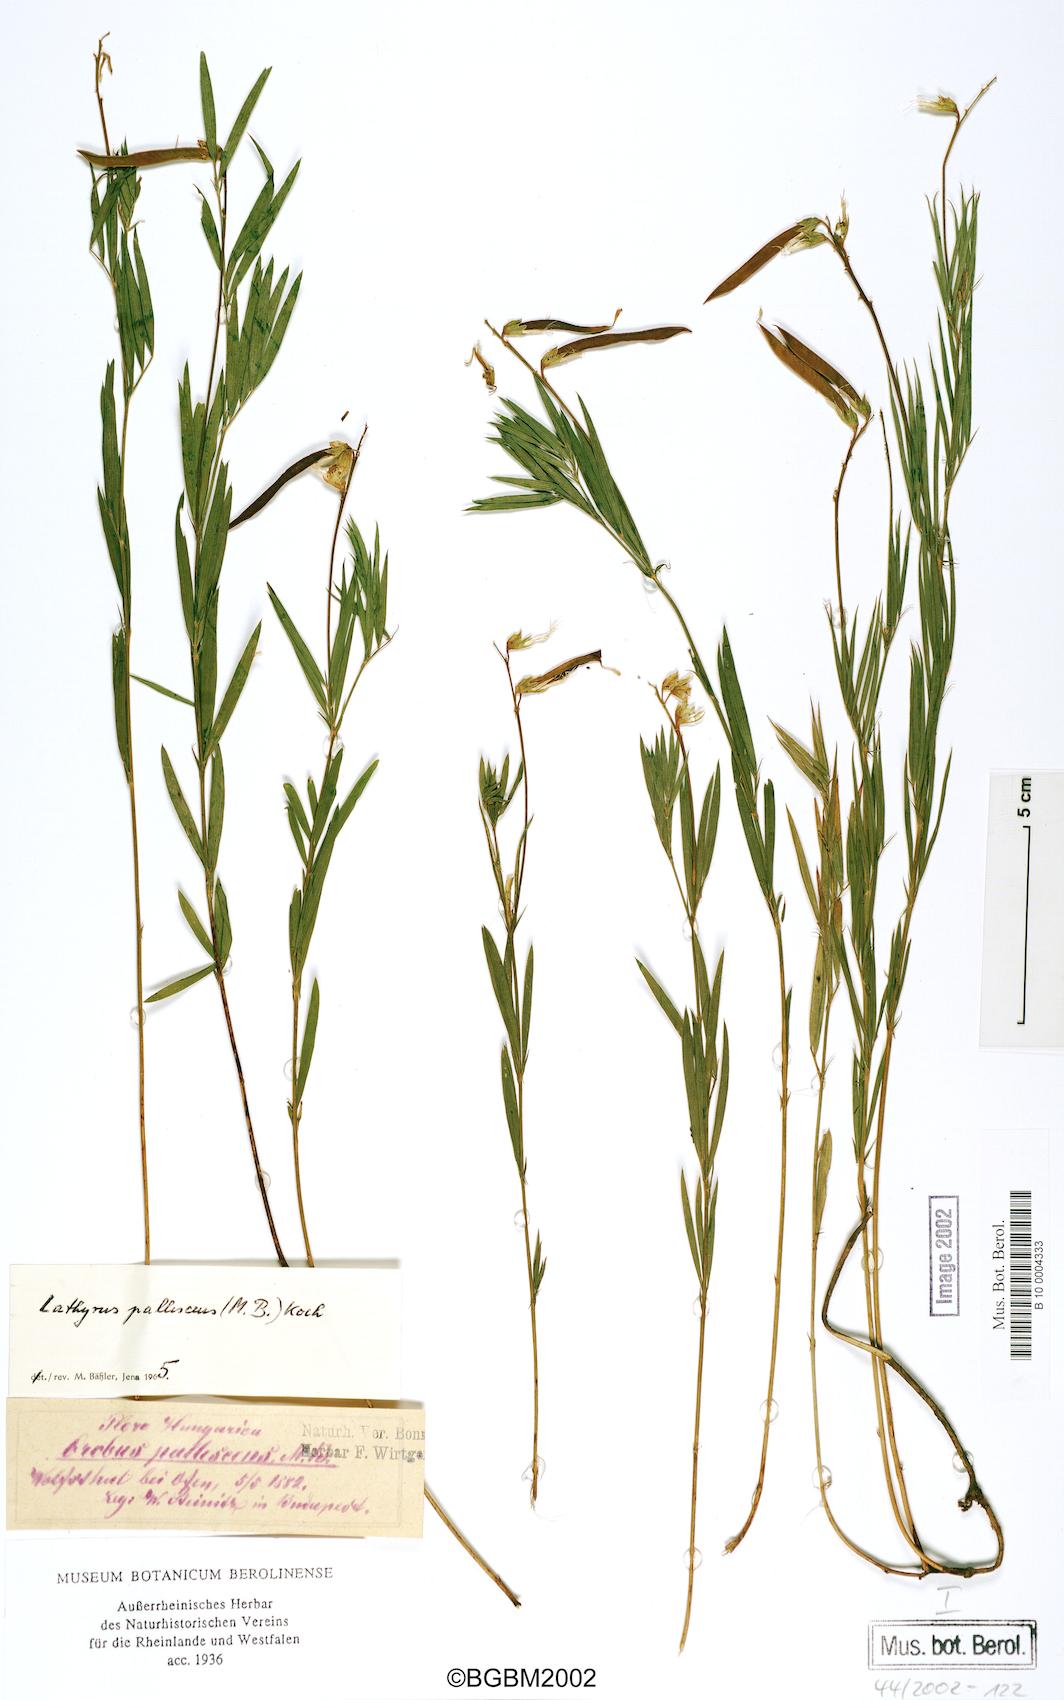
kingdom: Plantae
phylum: Tracheophyta
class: Magnoliopsida
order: Fabales
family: Fabaceae
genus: Lathyrus
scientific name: Lathyrus pallescens
